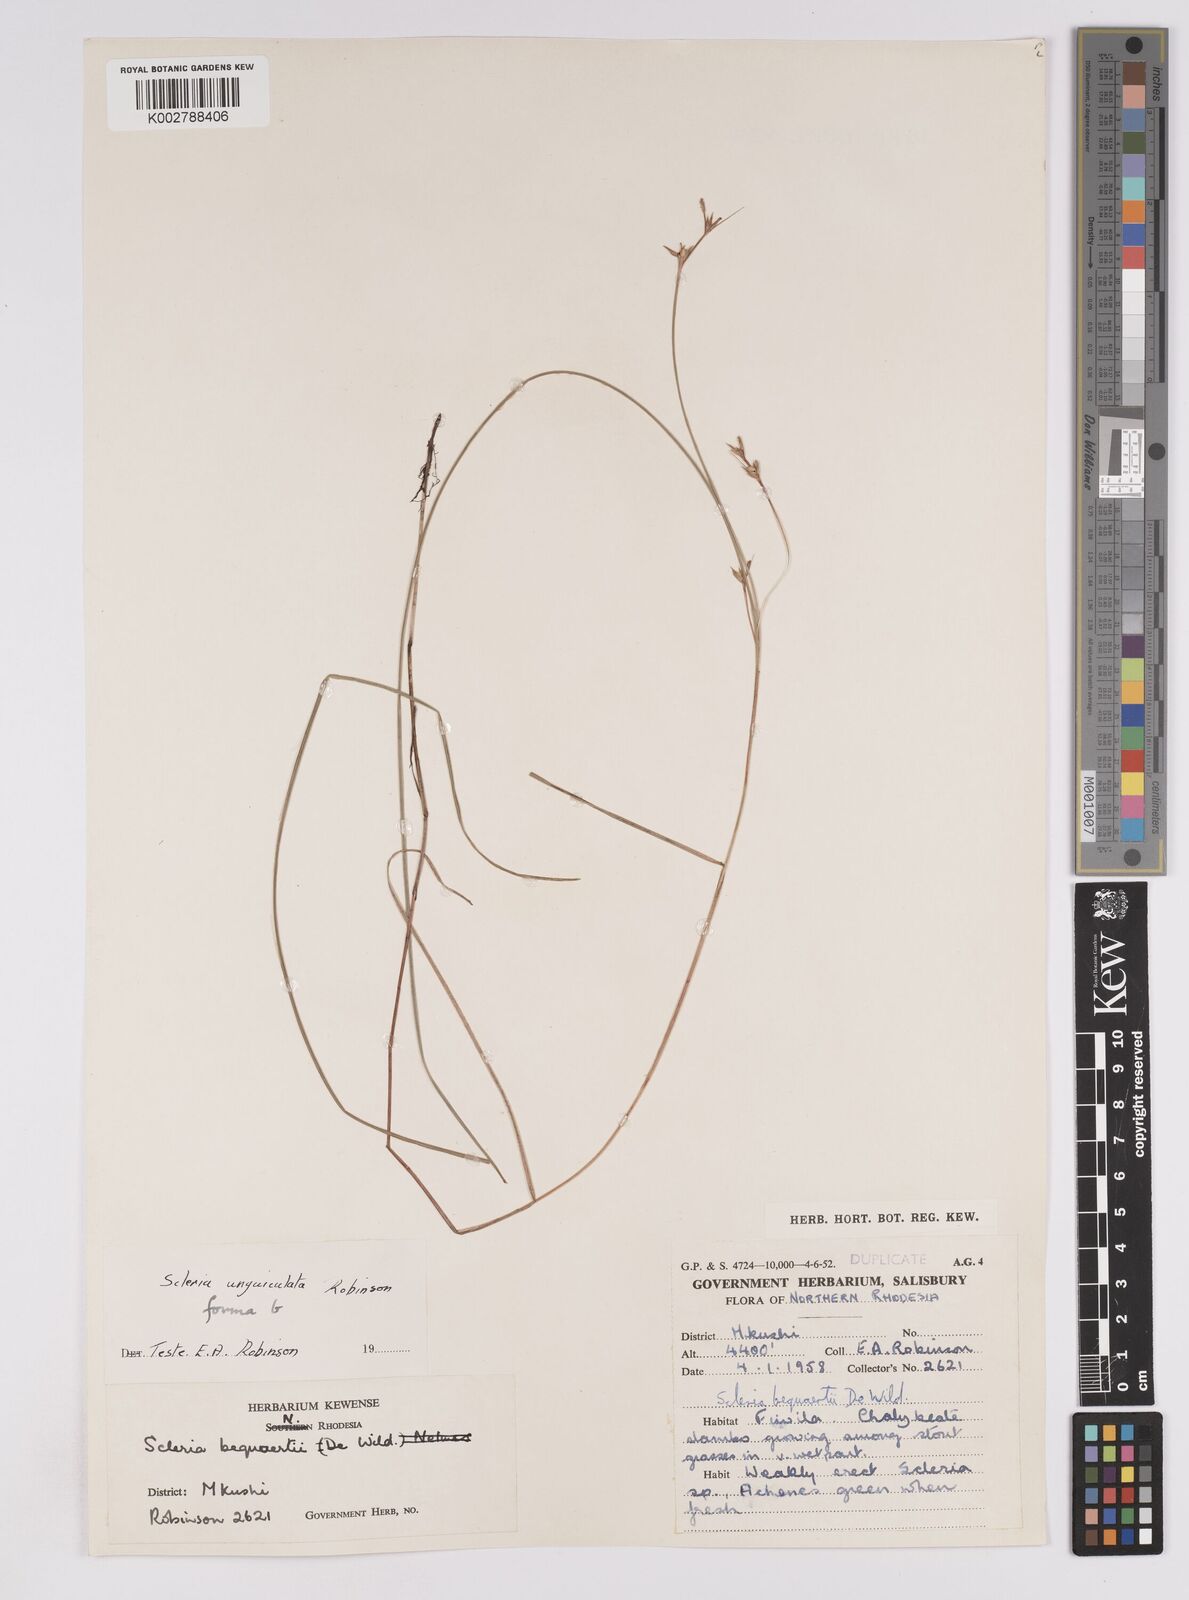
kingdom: Plantae
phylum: Tracheophyta
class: Liliopsida
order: Poales
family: Cyperaceae
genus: Scleria
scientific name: Scleria unguiculata
